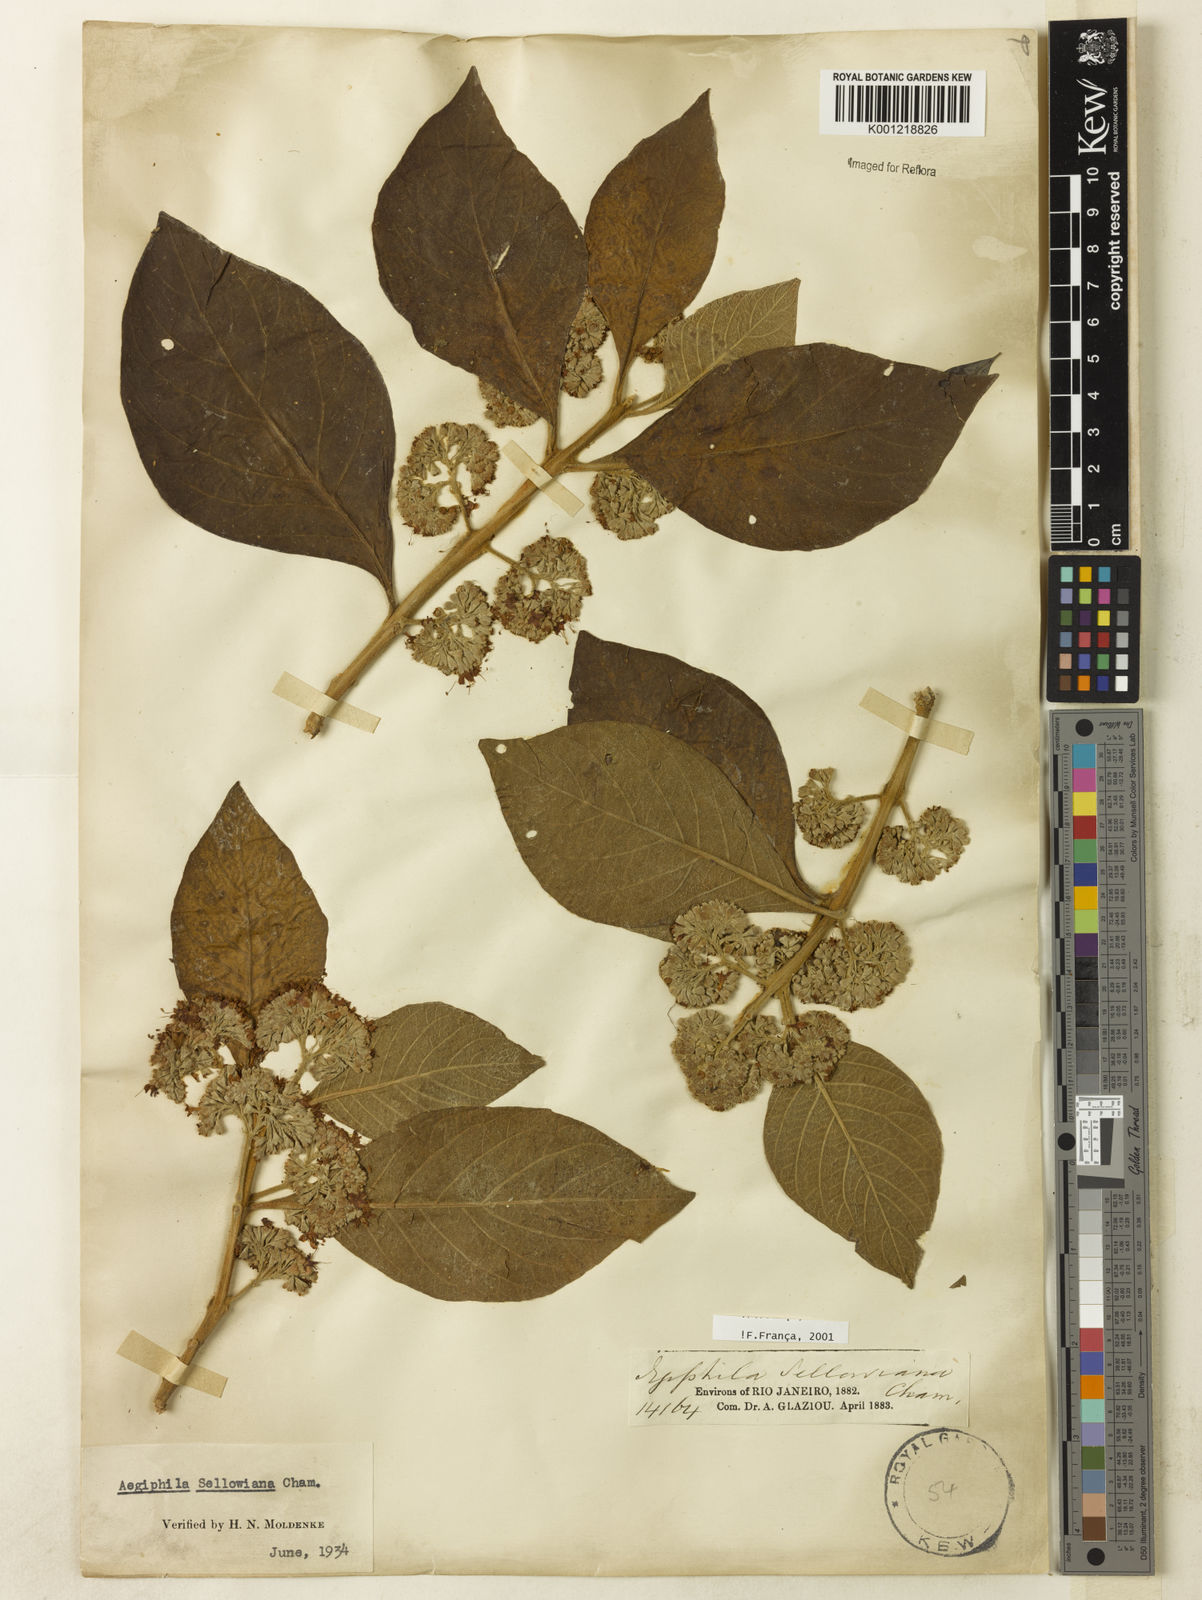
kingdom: Plantae
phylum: Tracheophyta
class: Magnoliopsida
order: Lamiales
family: Lamiaceae
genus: Aegiphila
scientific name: Aegiphila verticillata
